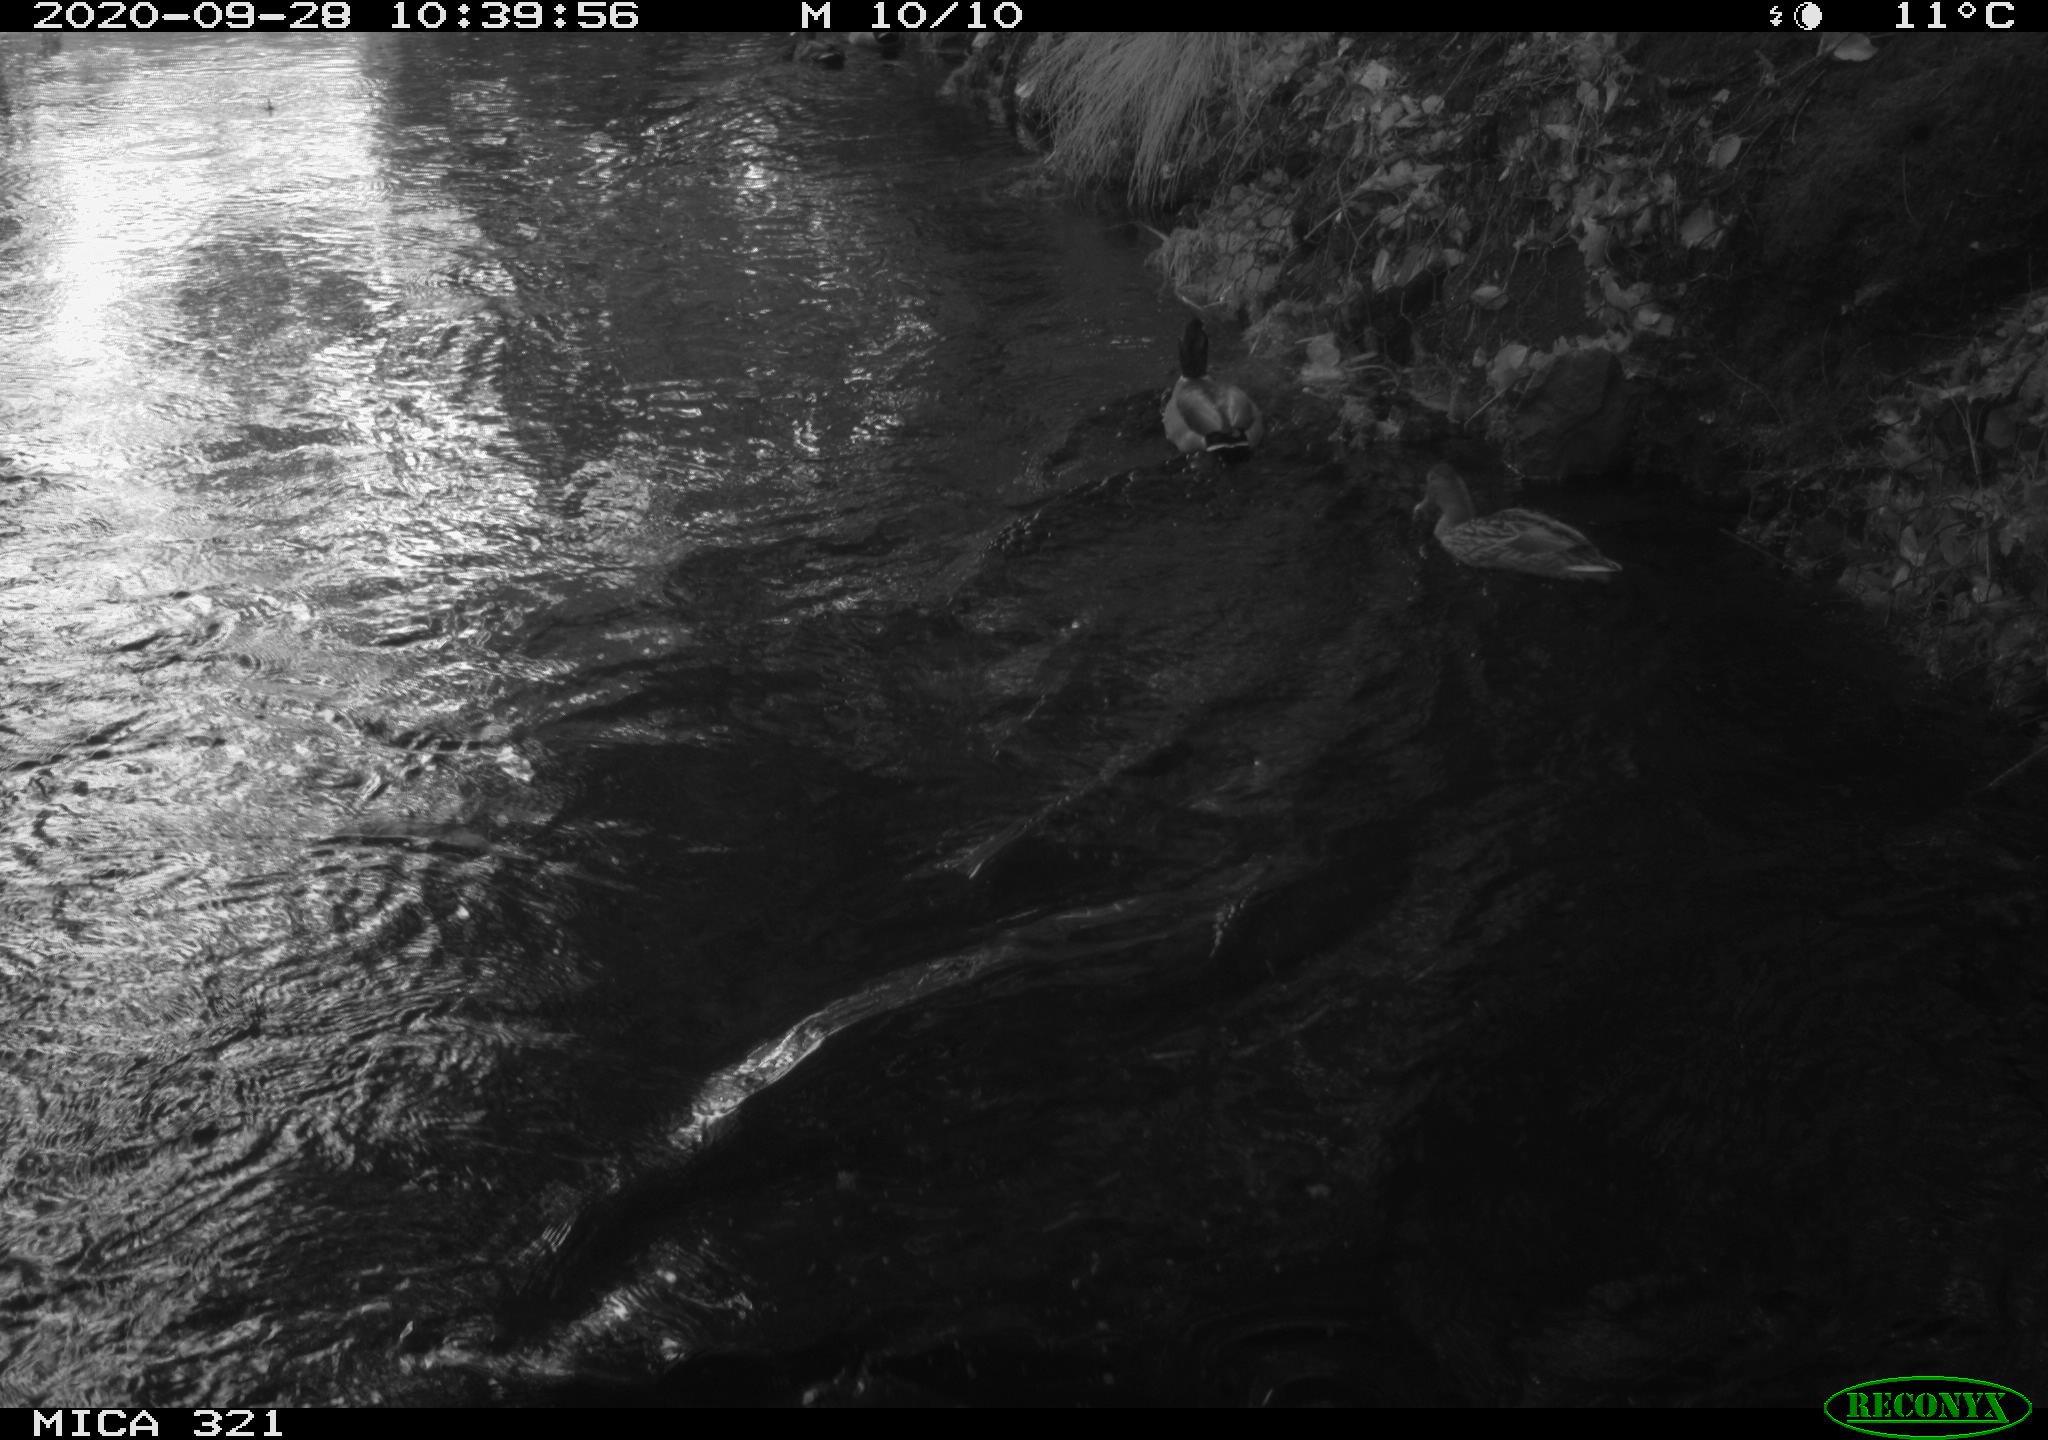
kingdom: Animalia
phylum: Chordata
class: Aves
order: Anseriformes
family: Anatidae
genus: Anas
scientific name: Anas platyrhynchos
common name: Mallard
